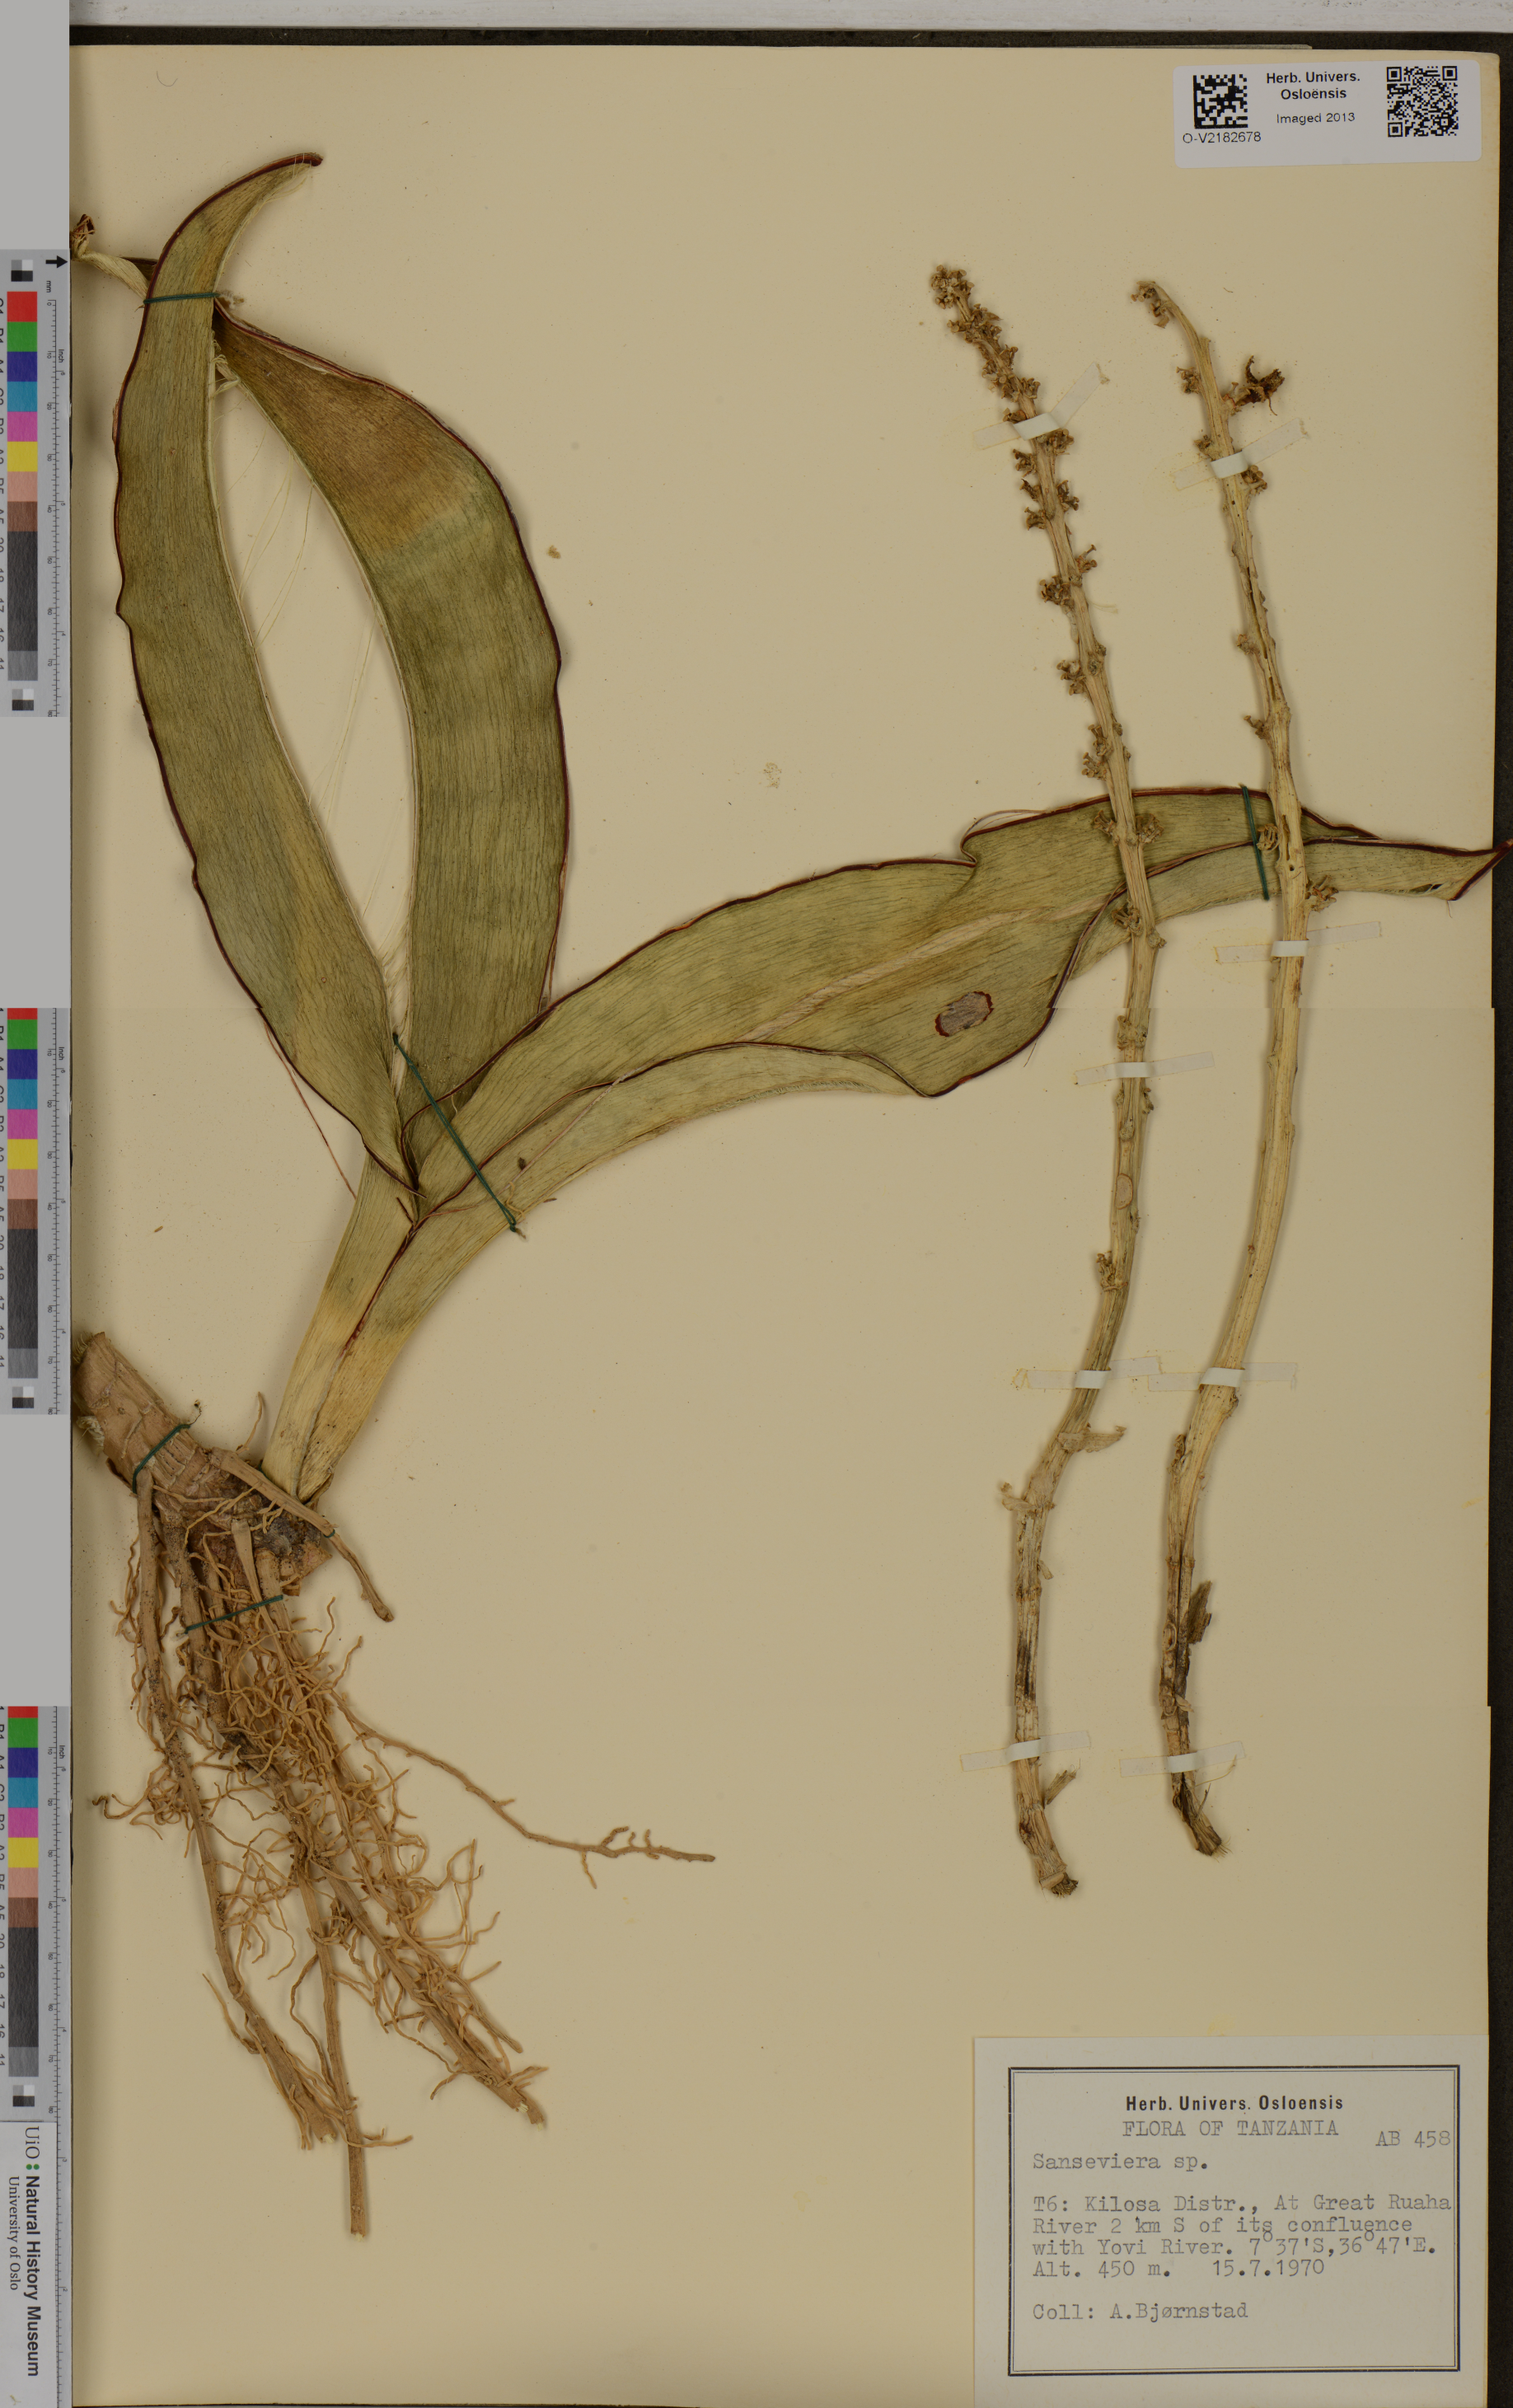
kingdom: Plantae
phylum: Tracheophyta
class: Liliopsida
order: Commelinales
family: Haemodoraceae
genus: Sanseviera
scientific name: Sanseviera
